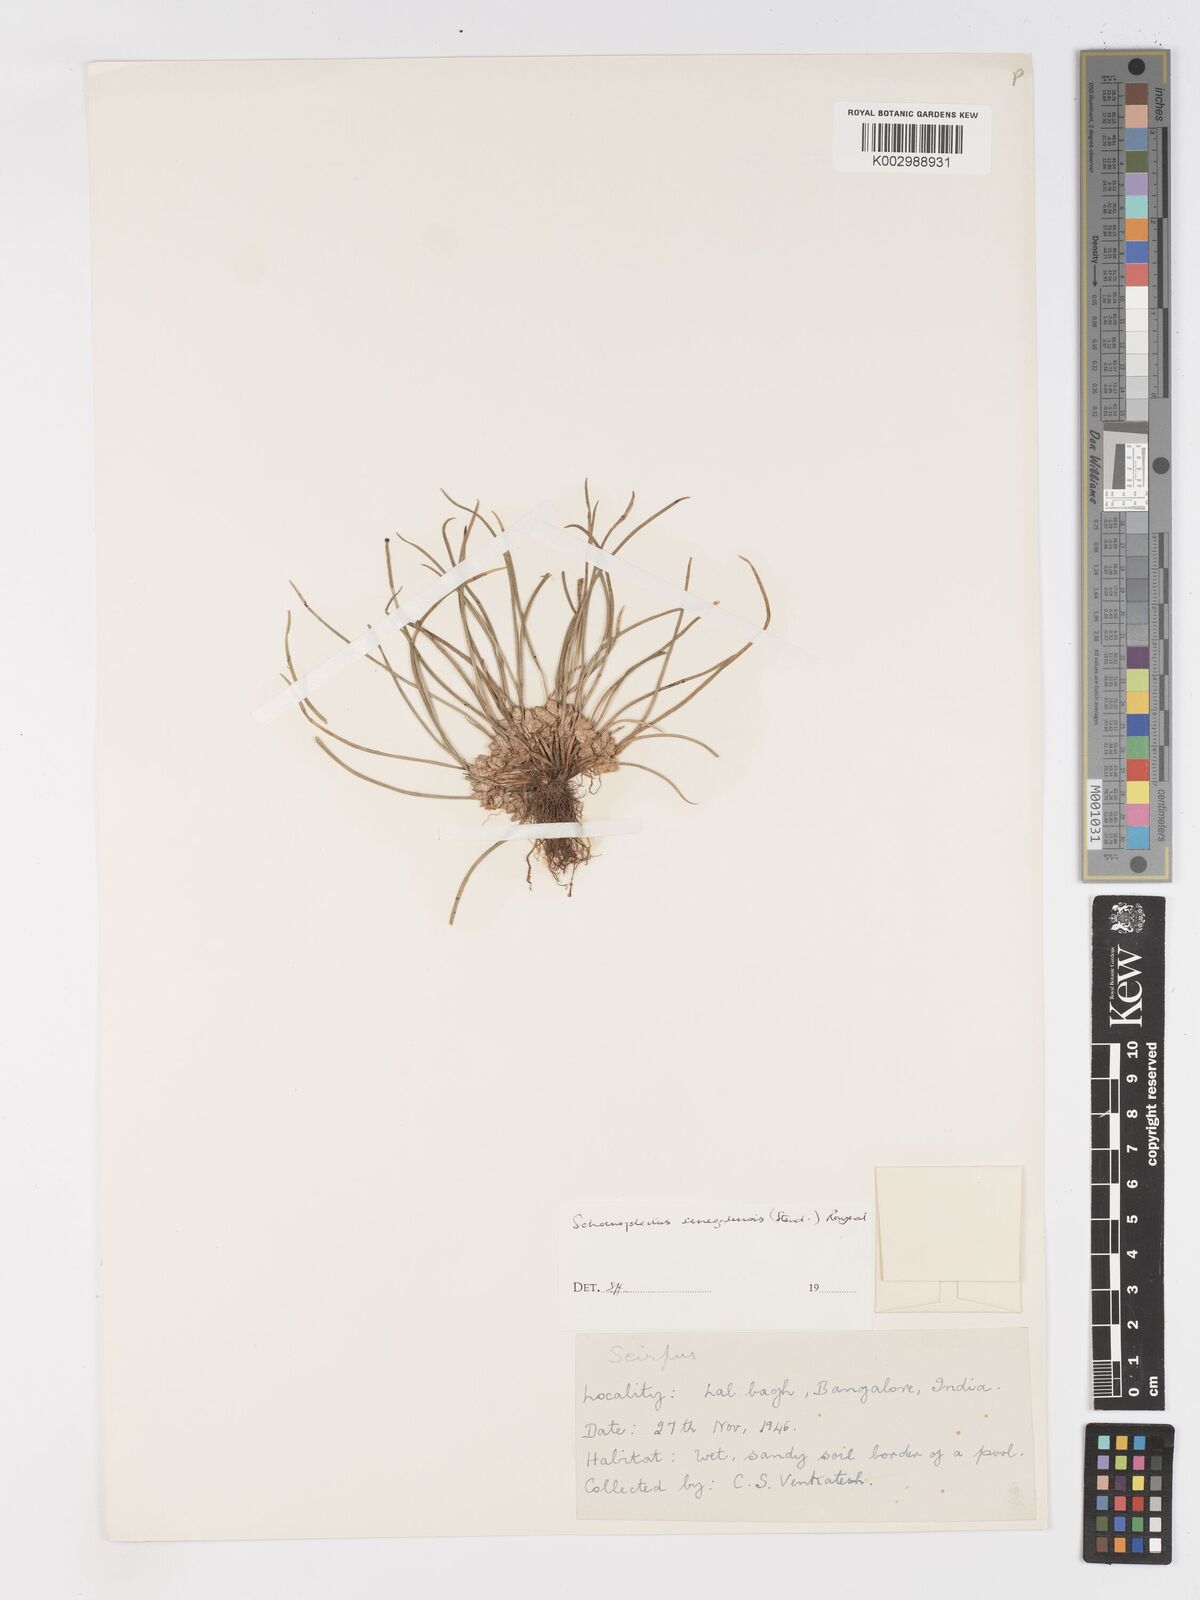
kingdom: Plantae
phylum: Tracheophyta
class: Liliopsida
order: Poales
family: Cyperaceae
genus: Schoenoplectiella
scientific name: Schoenoplectiella senegalensis
